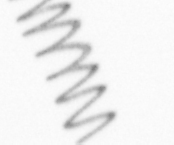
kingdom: Chromista
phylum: Ochrophyta
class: Bacillariophyceae
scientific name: Bacillariophyceae
